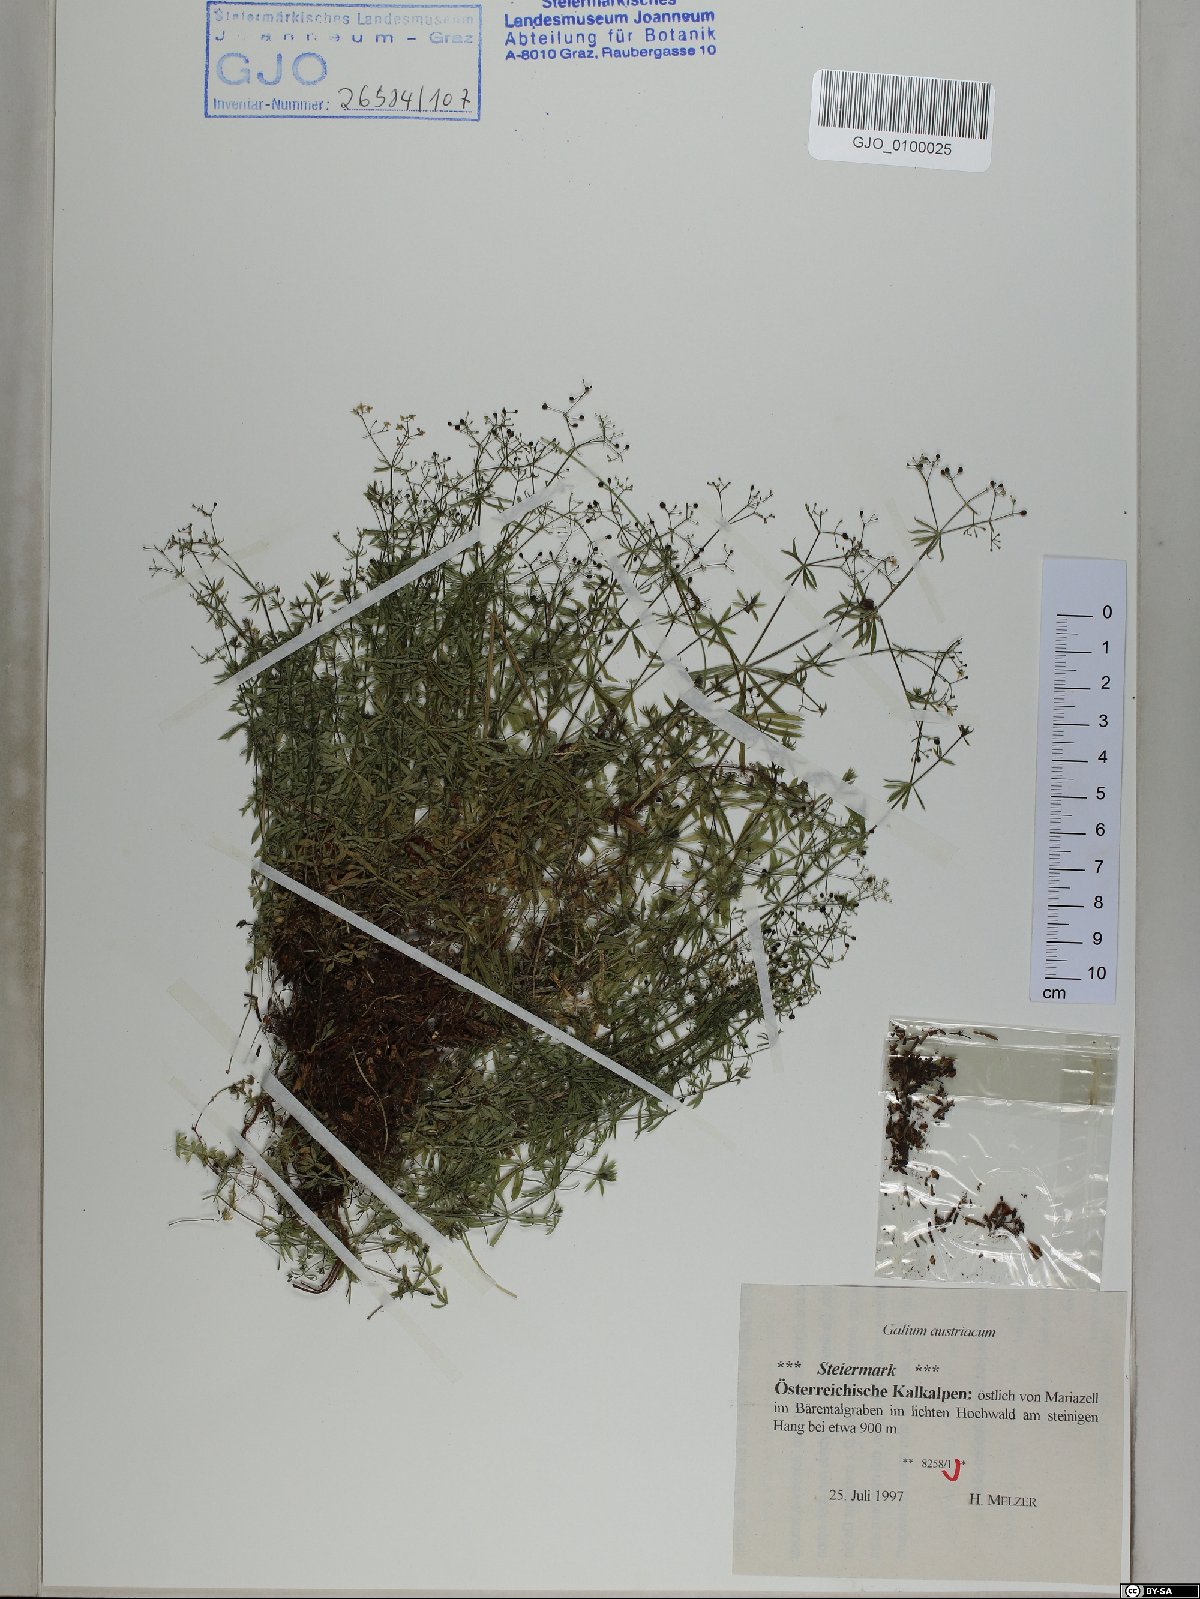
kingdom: Plantae
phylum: Tracheophyta
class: Magnoliopsida
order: Gentianales
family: Rubiaceae
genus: Galium
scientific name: Galium austriacum
